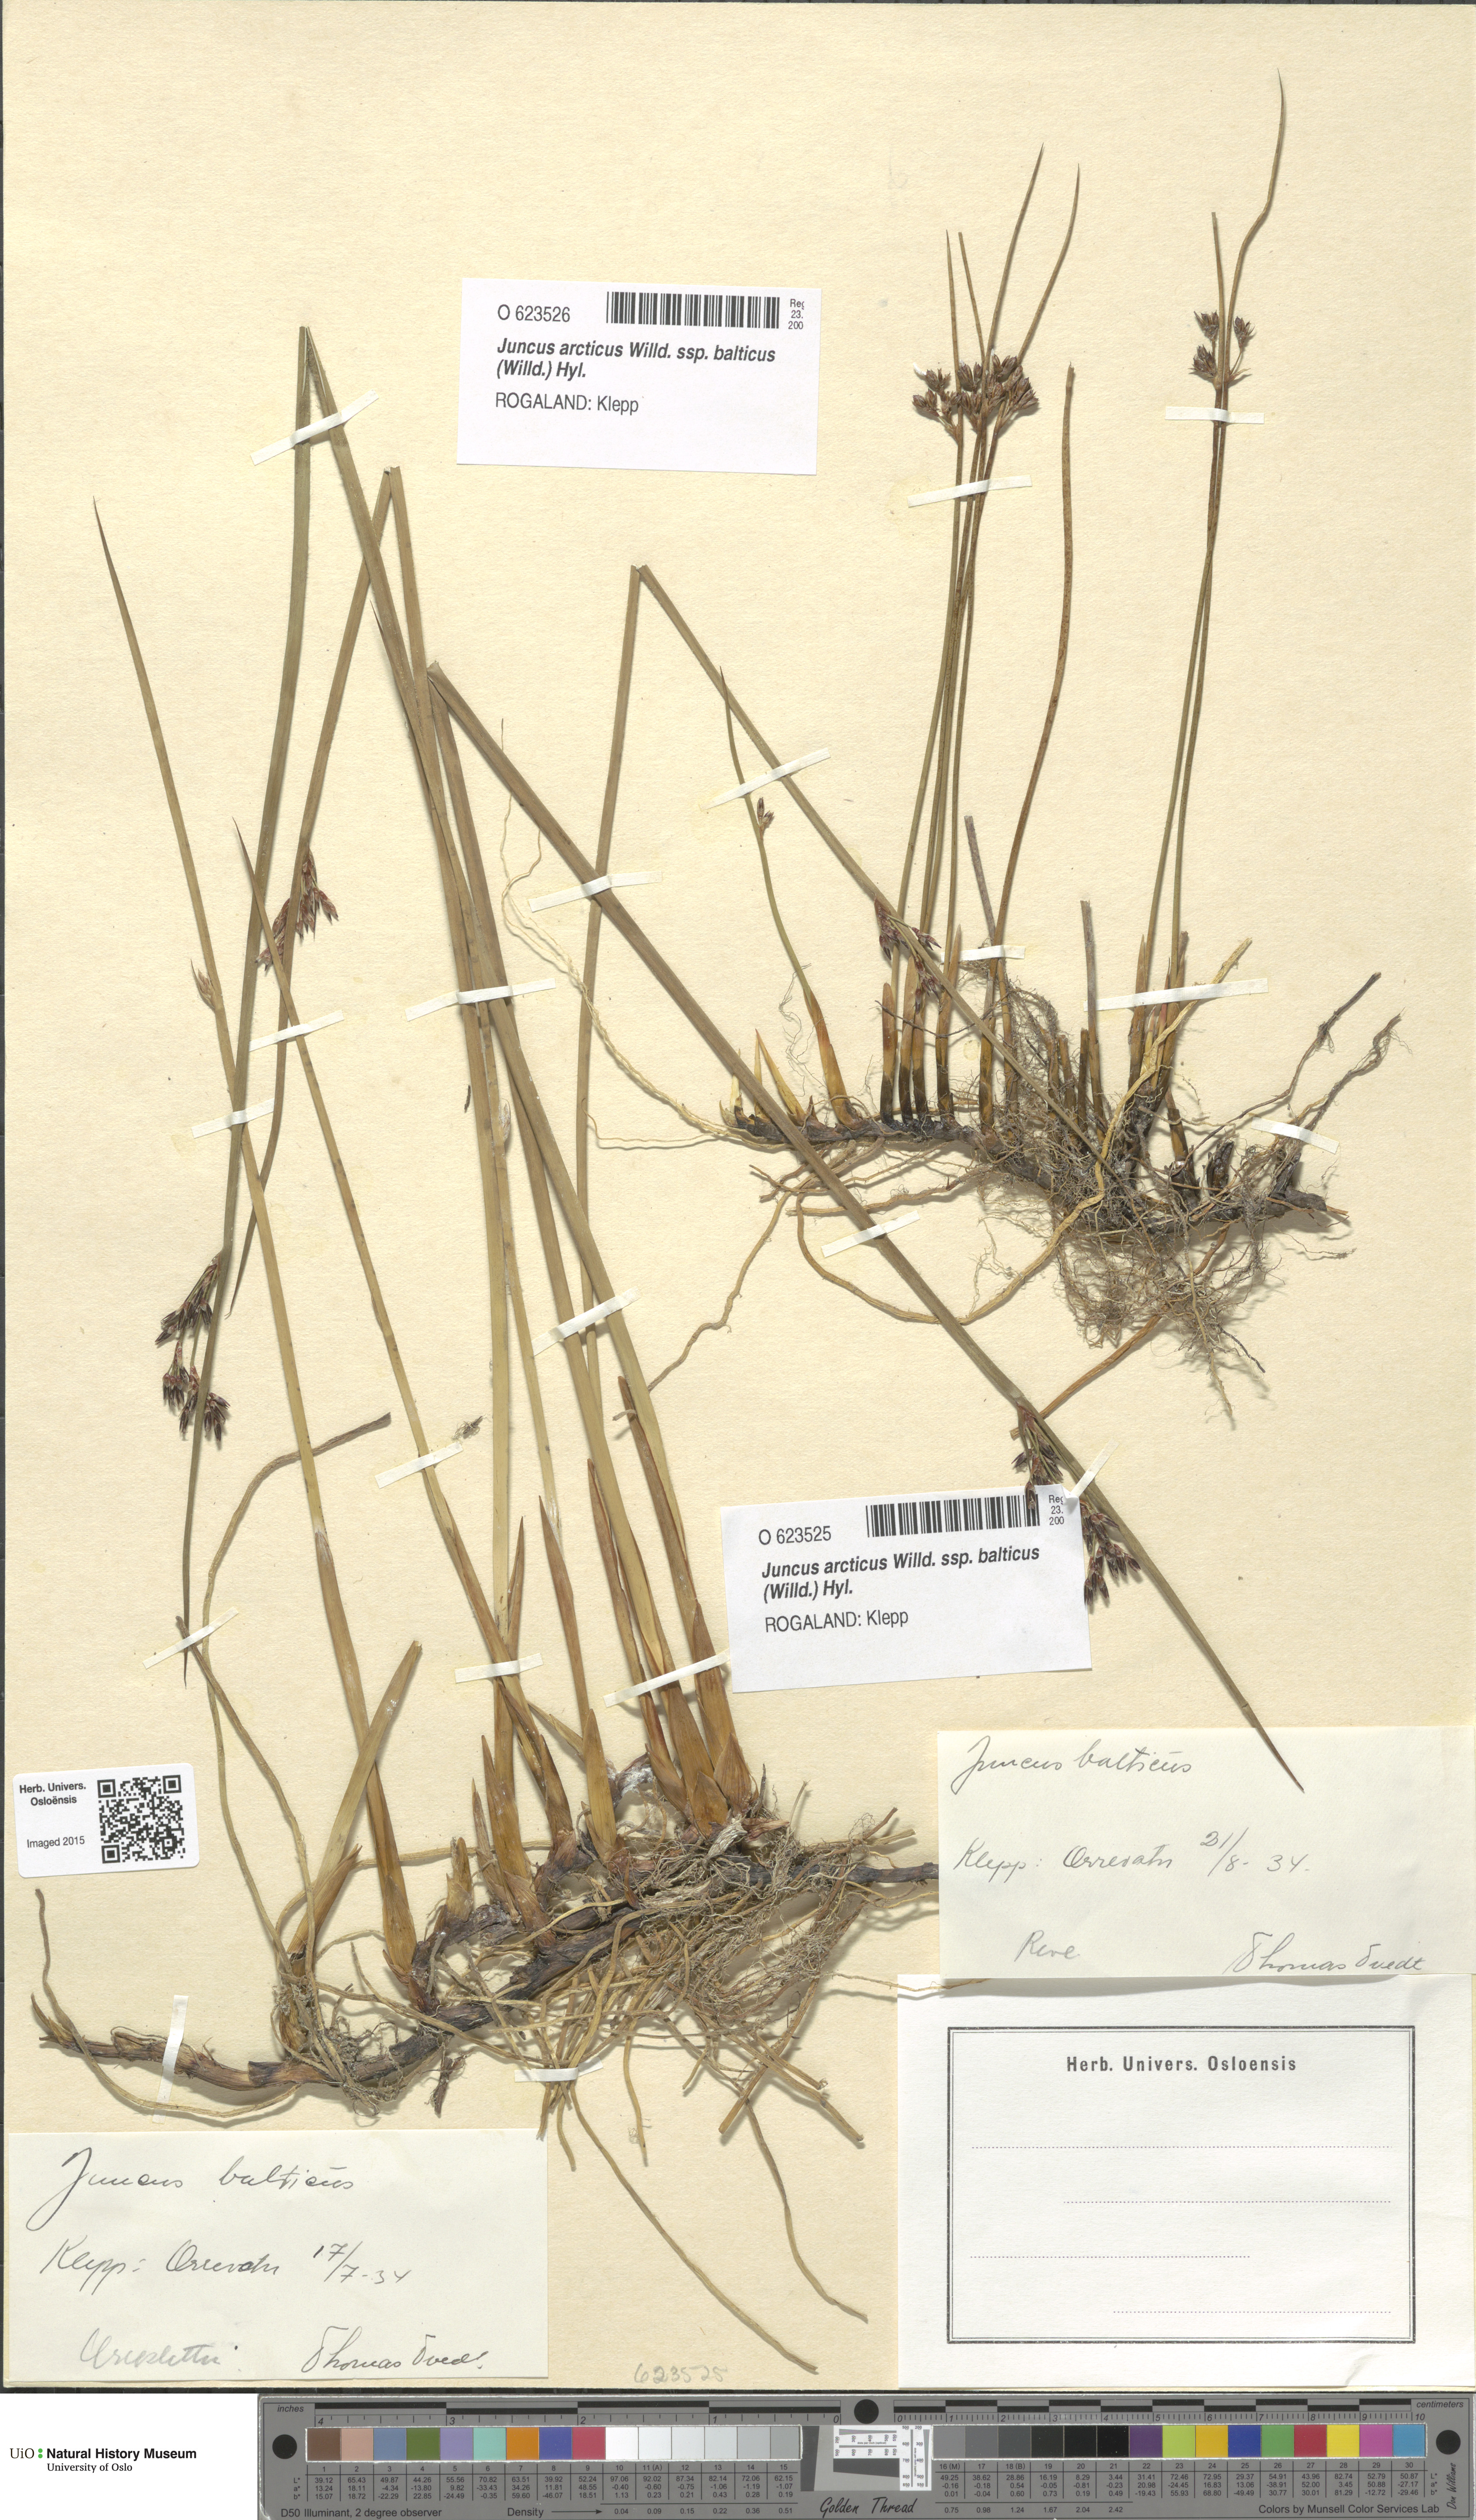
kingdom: Plantae
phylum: Tracheophyta
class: Liliopsida
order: Poales
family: Juncaceae
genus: Juncus
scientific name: Juncus balticus
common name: Baltic rush
